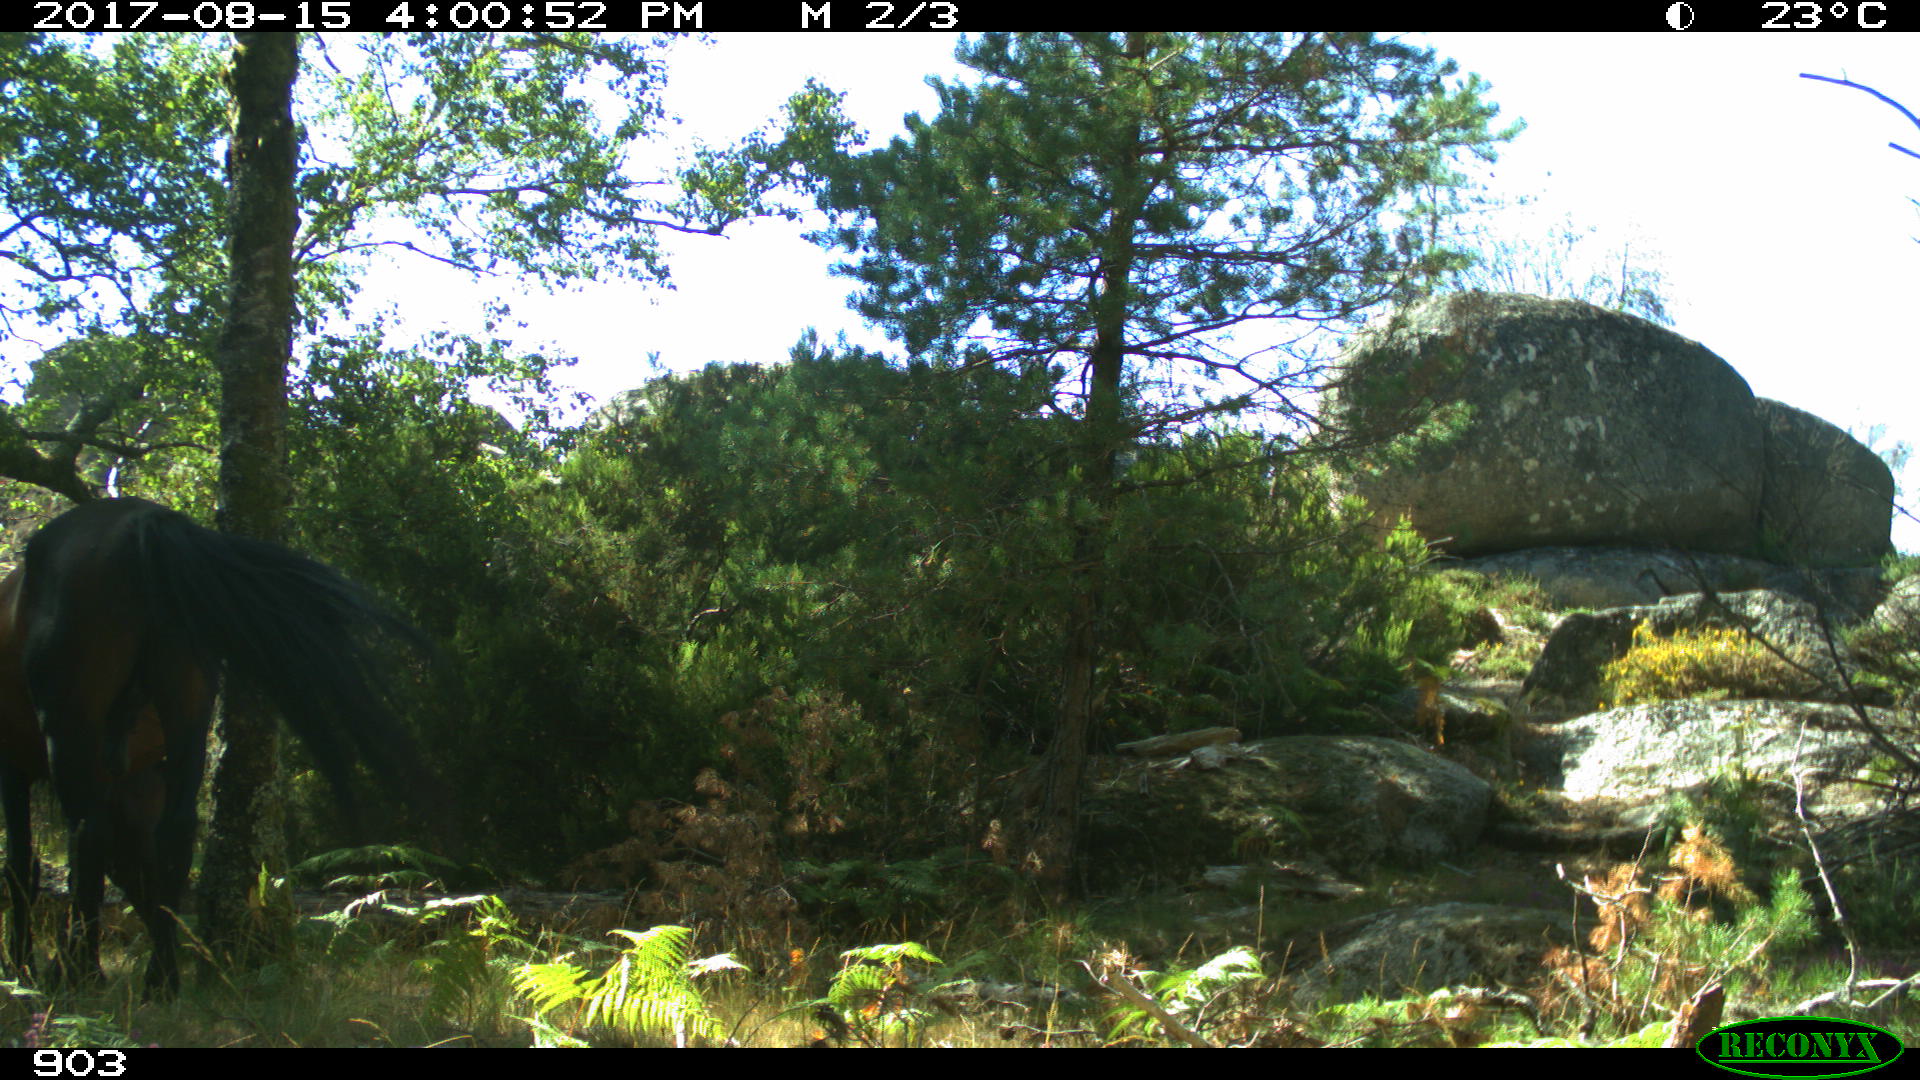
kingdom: Animalia
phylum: Chordata
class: Mammalia
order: Perissodactyla
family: Equidae
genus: Equus
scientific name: Equus caballus
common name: Horse
